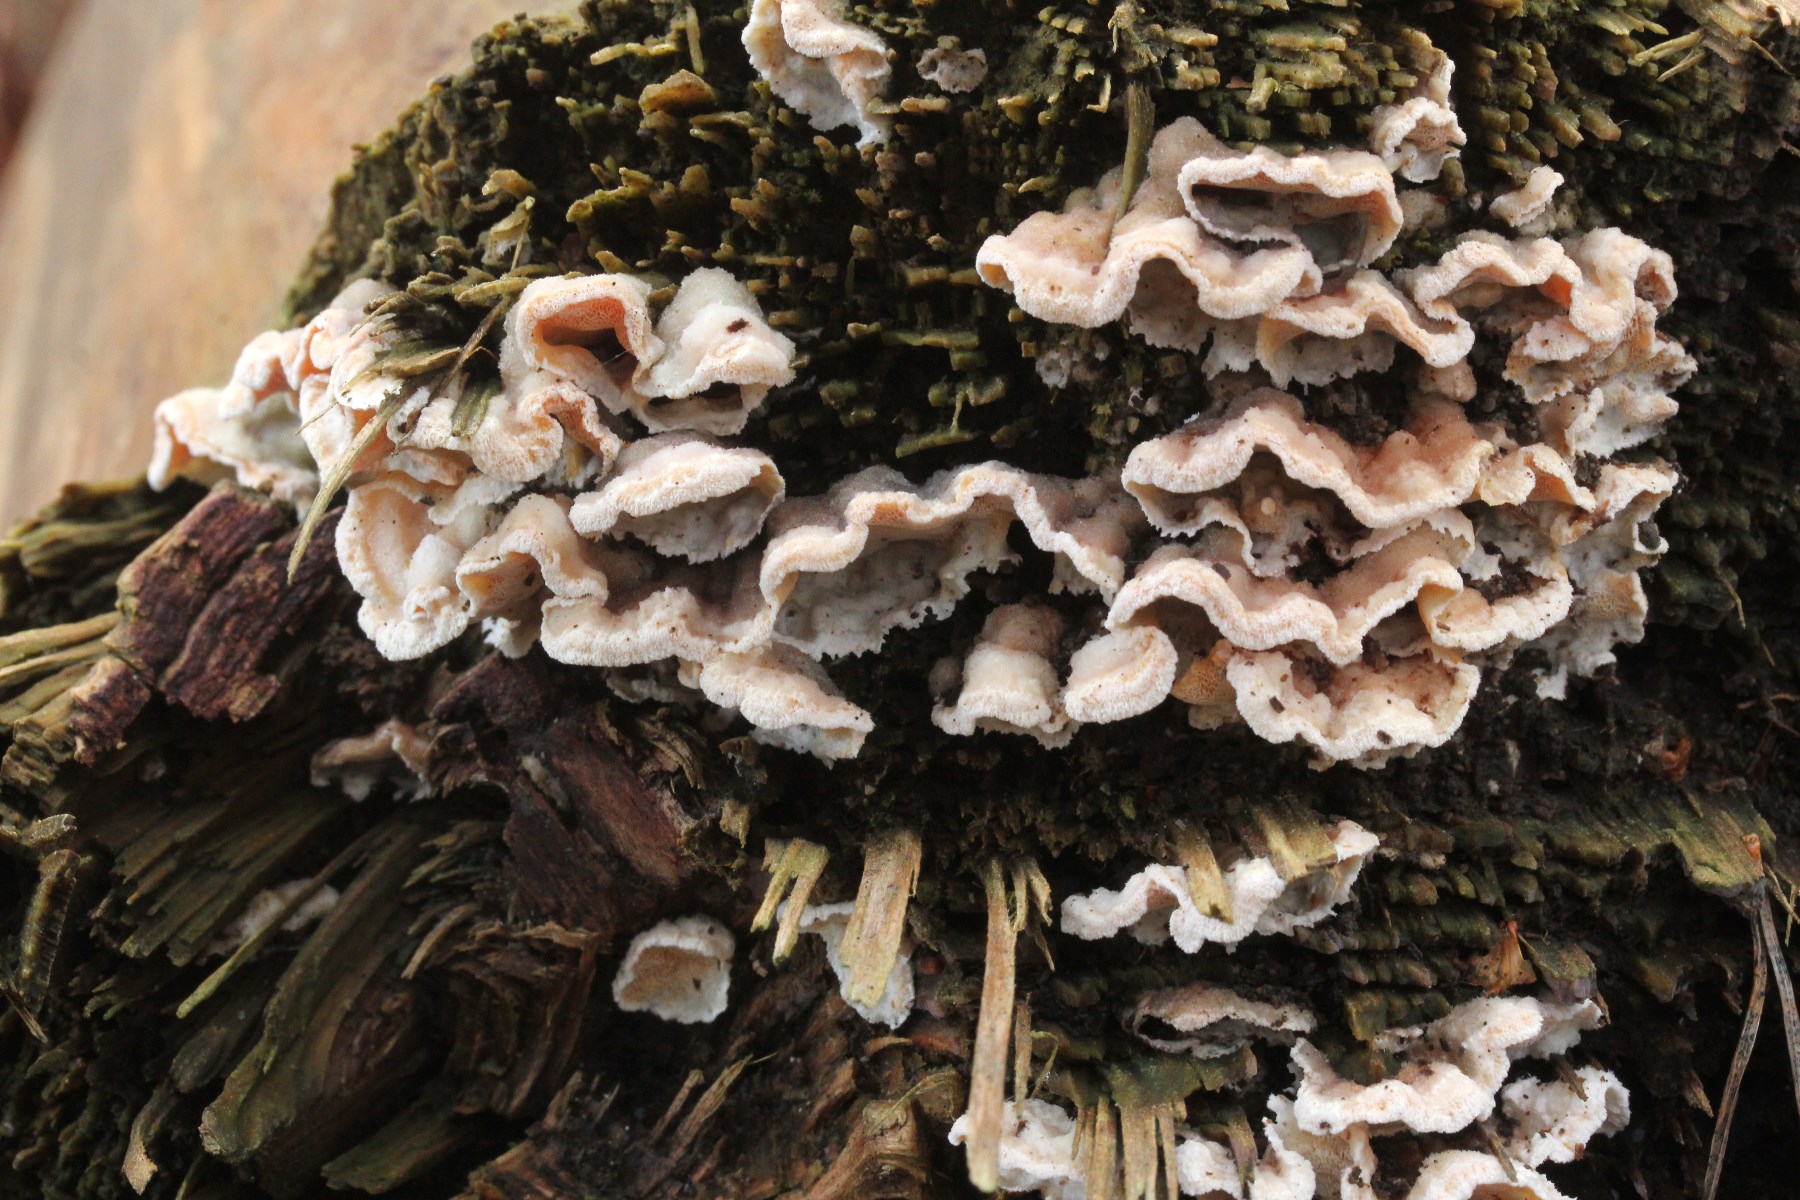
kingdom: Fungi
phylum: Basidiomycota
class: Agaricomycetes
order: Polyporales
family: Incrustoporiaceae
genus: Skeletocutis
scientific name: Skeletocutis amorpha
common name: orange krystalporesvamp
